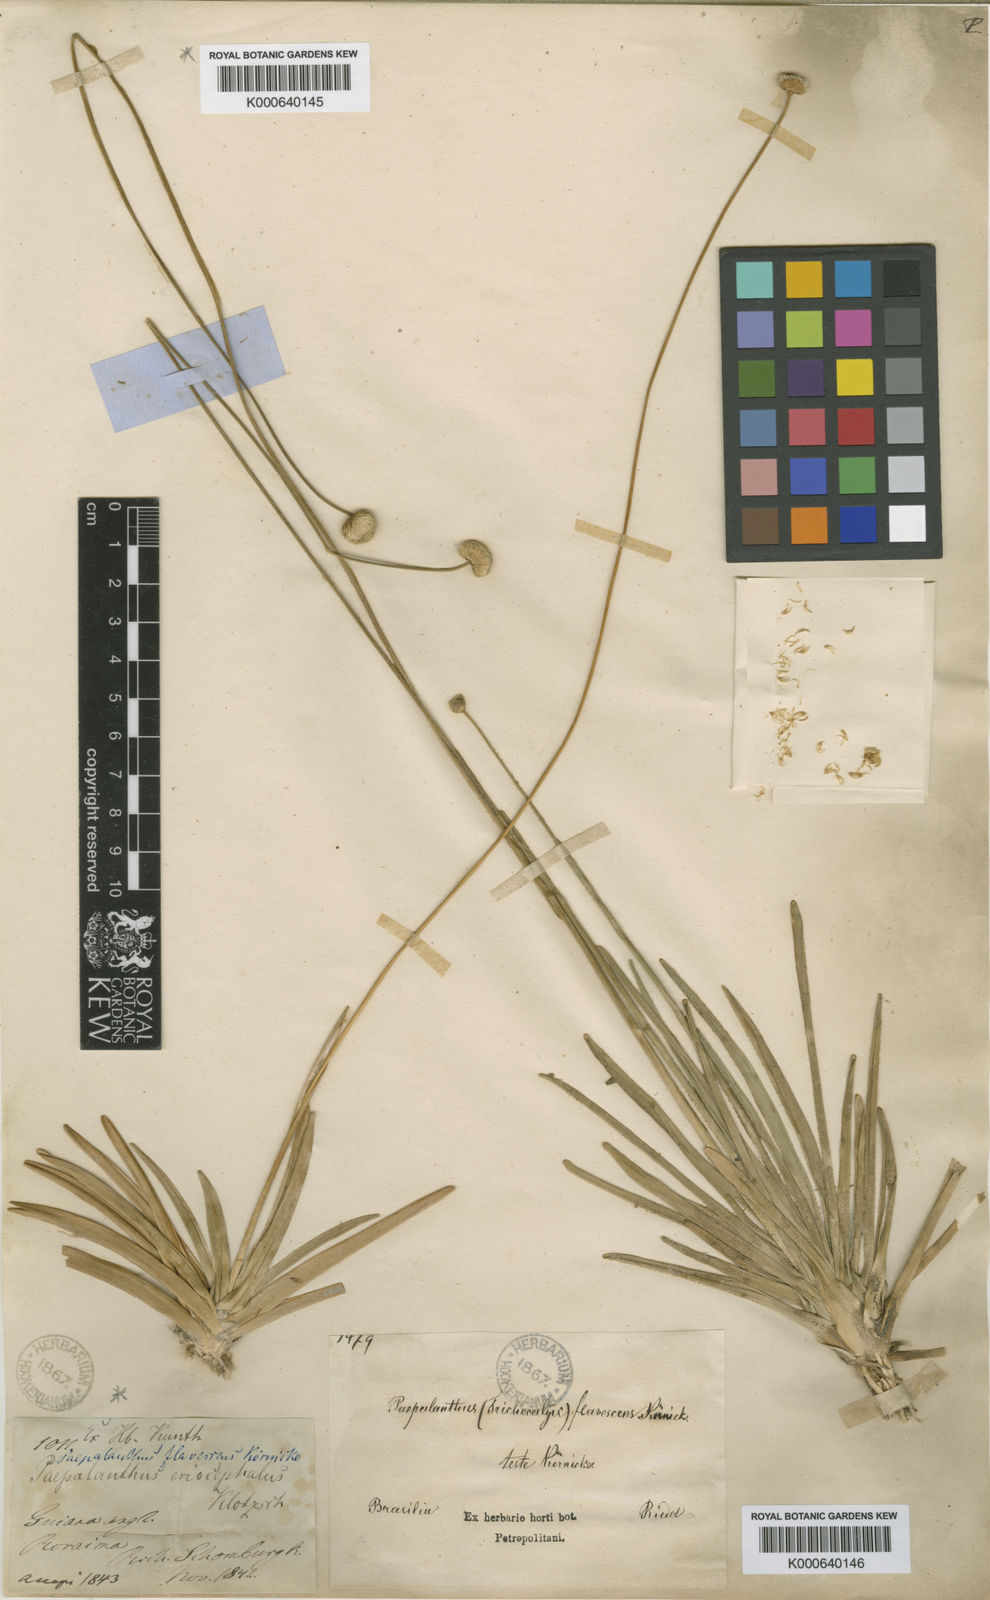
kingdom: Plantae
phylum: Tracheophyta
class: Liliopsida
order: Poales
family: Eriocaulaceae
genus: Leiothrix
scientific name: Leiothrix flavescens
